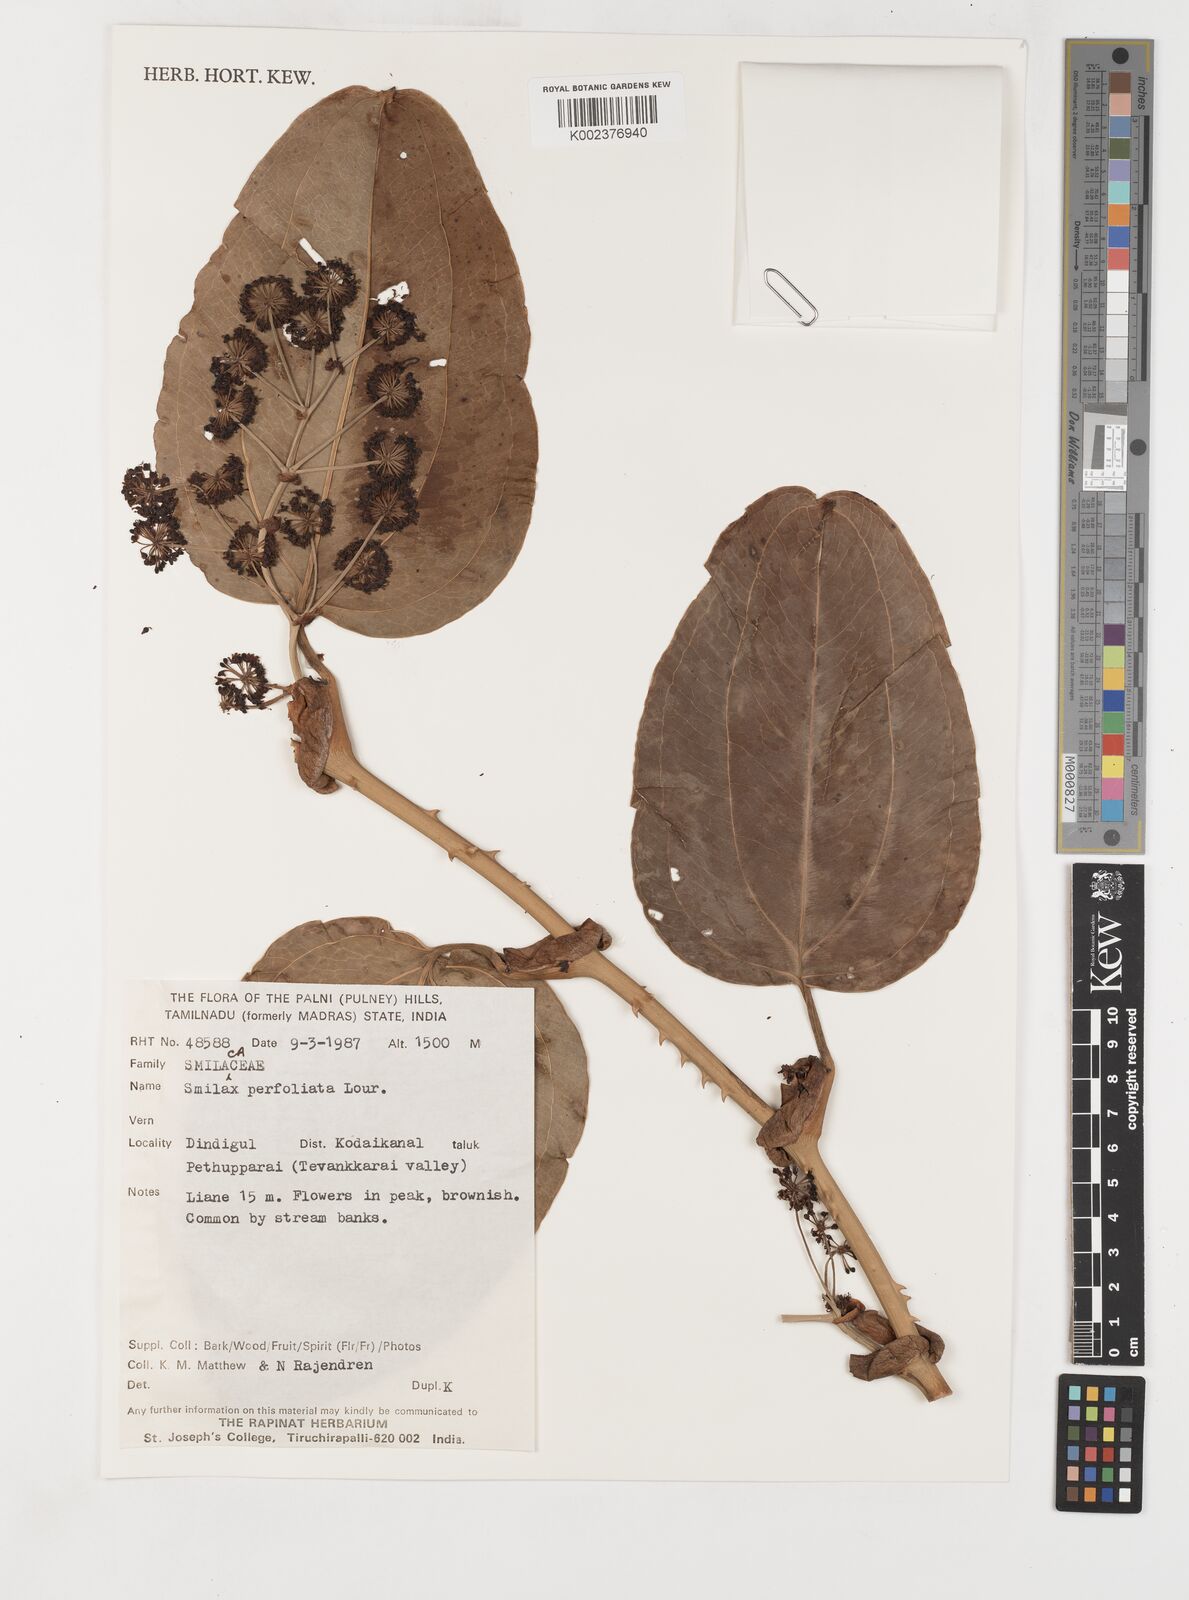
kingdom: Plantae
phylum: Tracheophyta
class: Liliopsida
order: Liliales
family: Smilacaceae
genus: Smilax
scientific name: Smilax perfoliata
